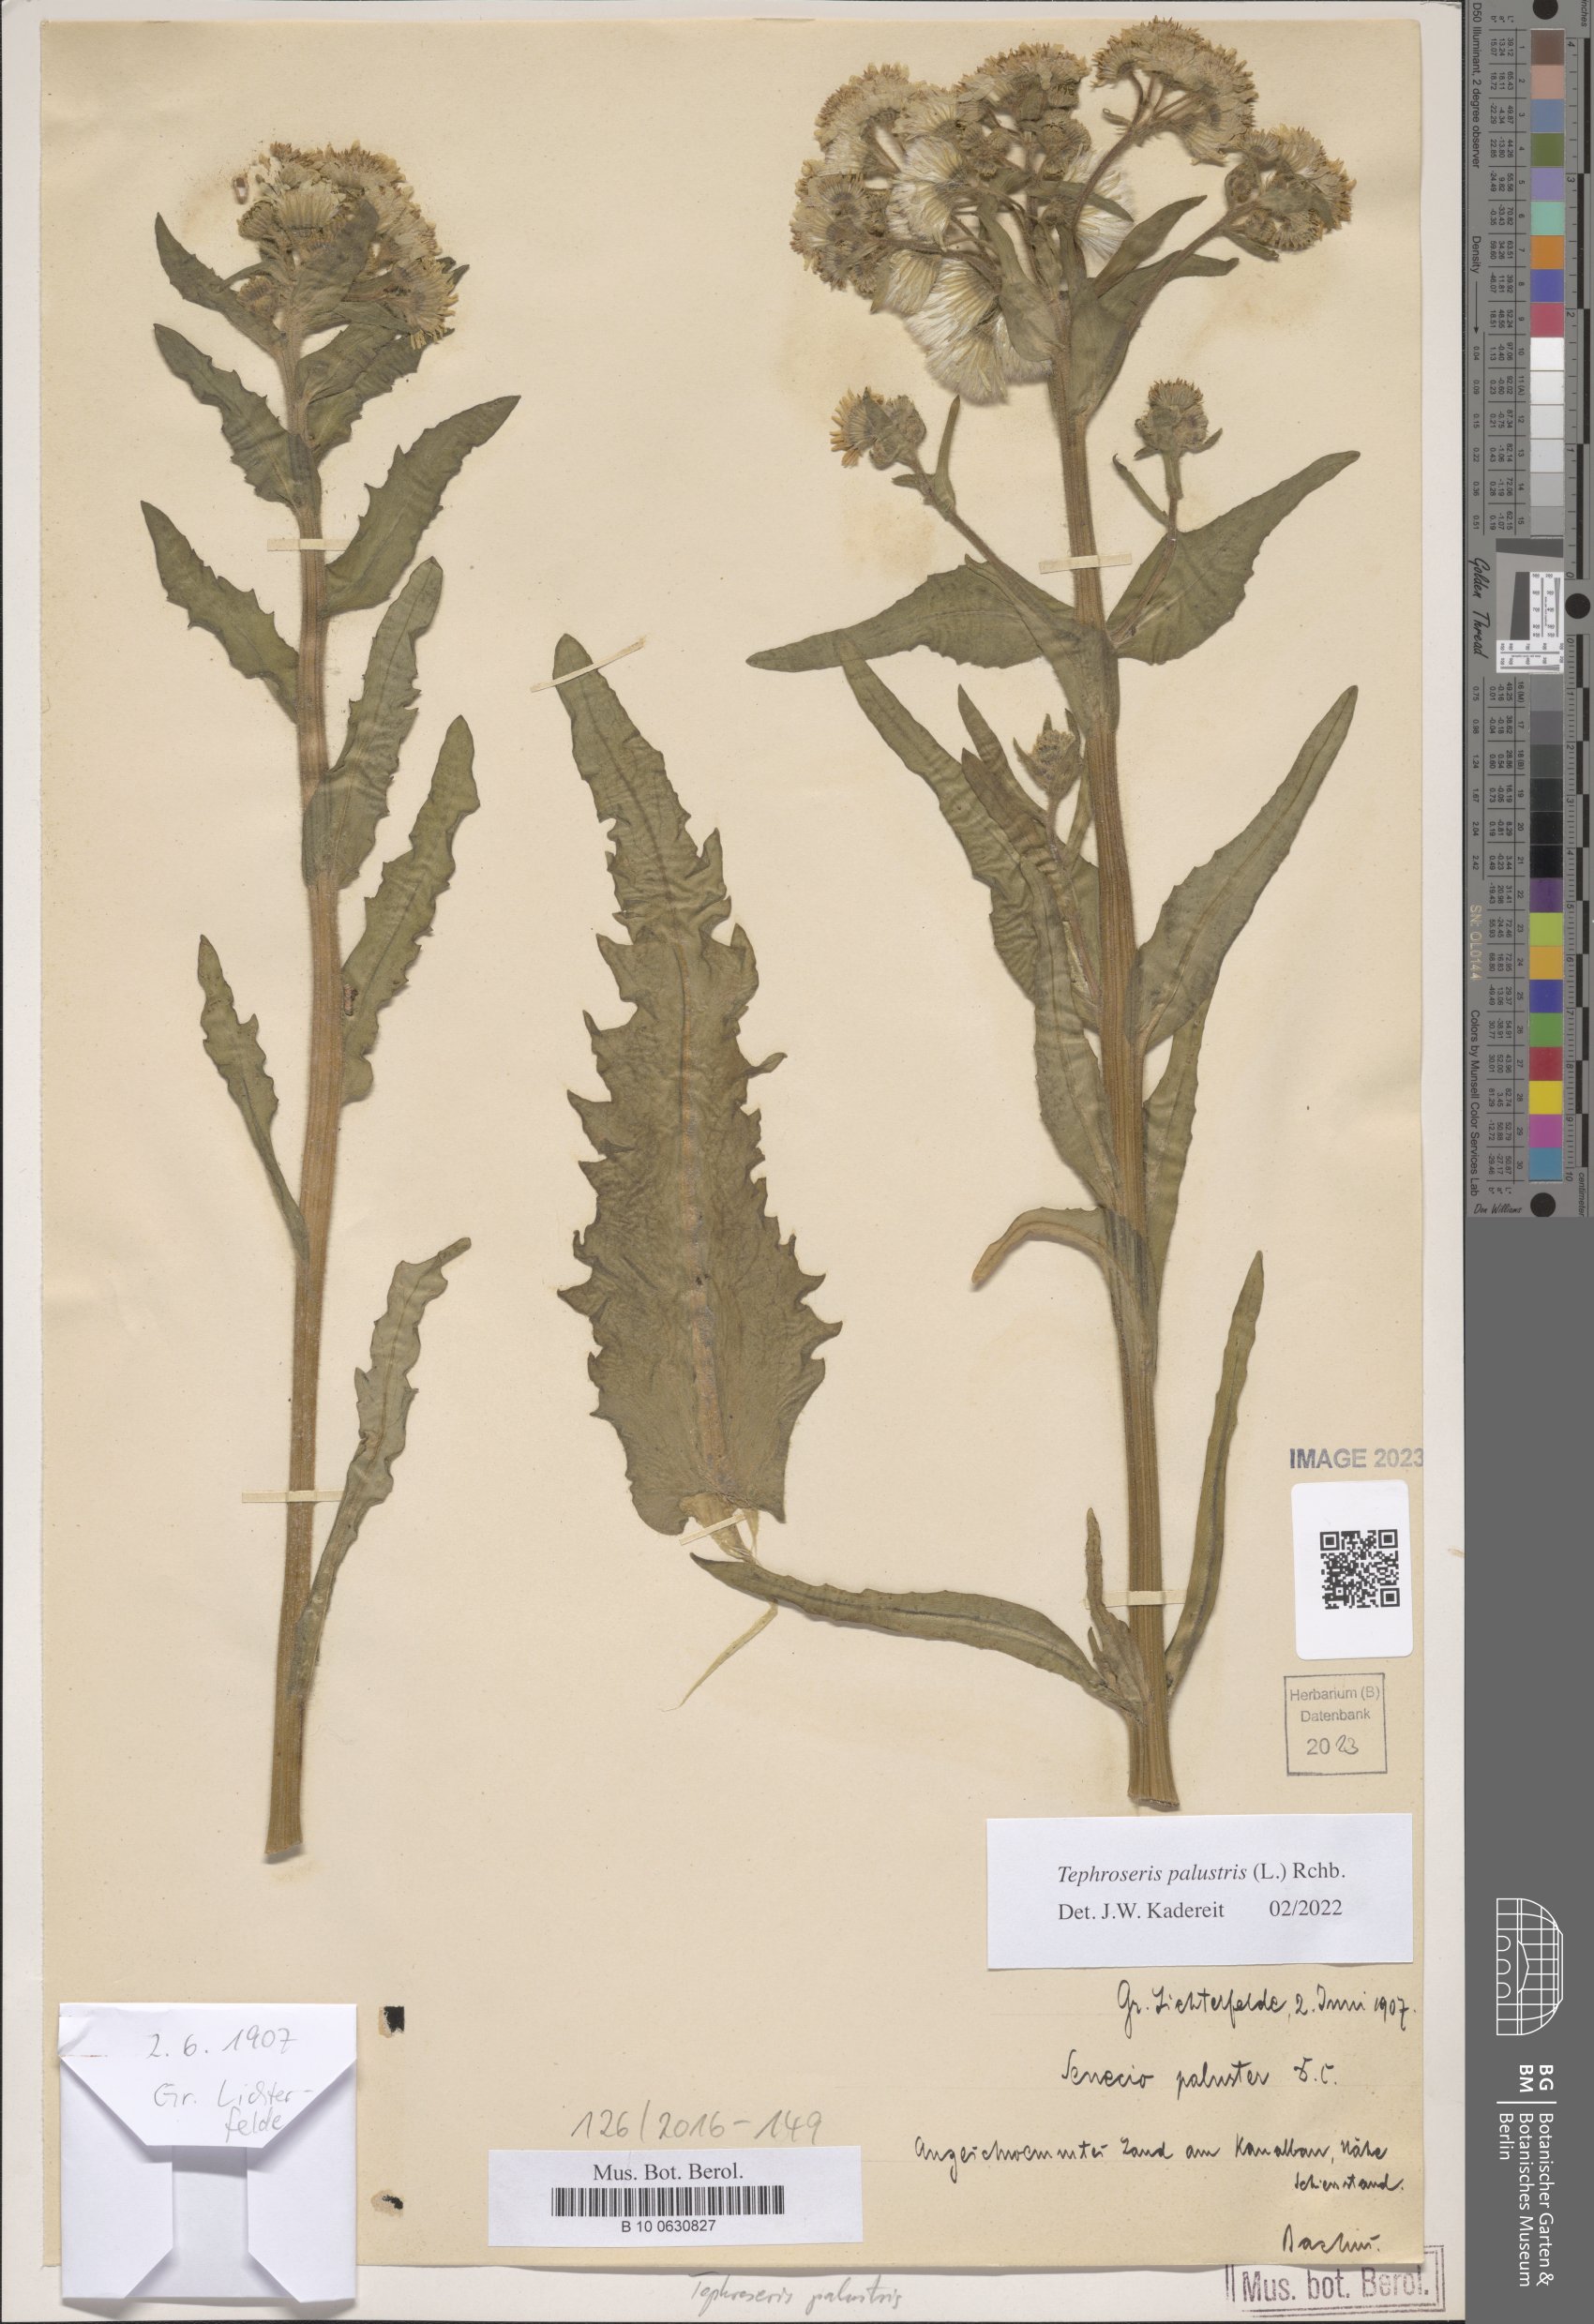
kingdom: Plantae
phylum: Tracheophyta
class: Magnoliopsida
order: Asterales
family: Asteraceae
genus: Tephroseris
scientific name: Tephroseris palustris
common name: Marsh fleawort
